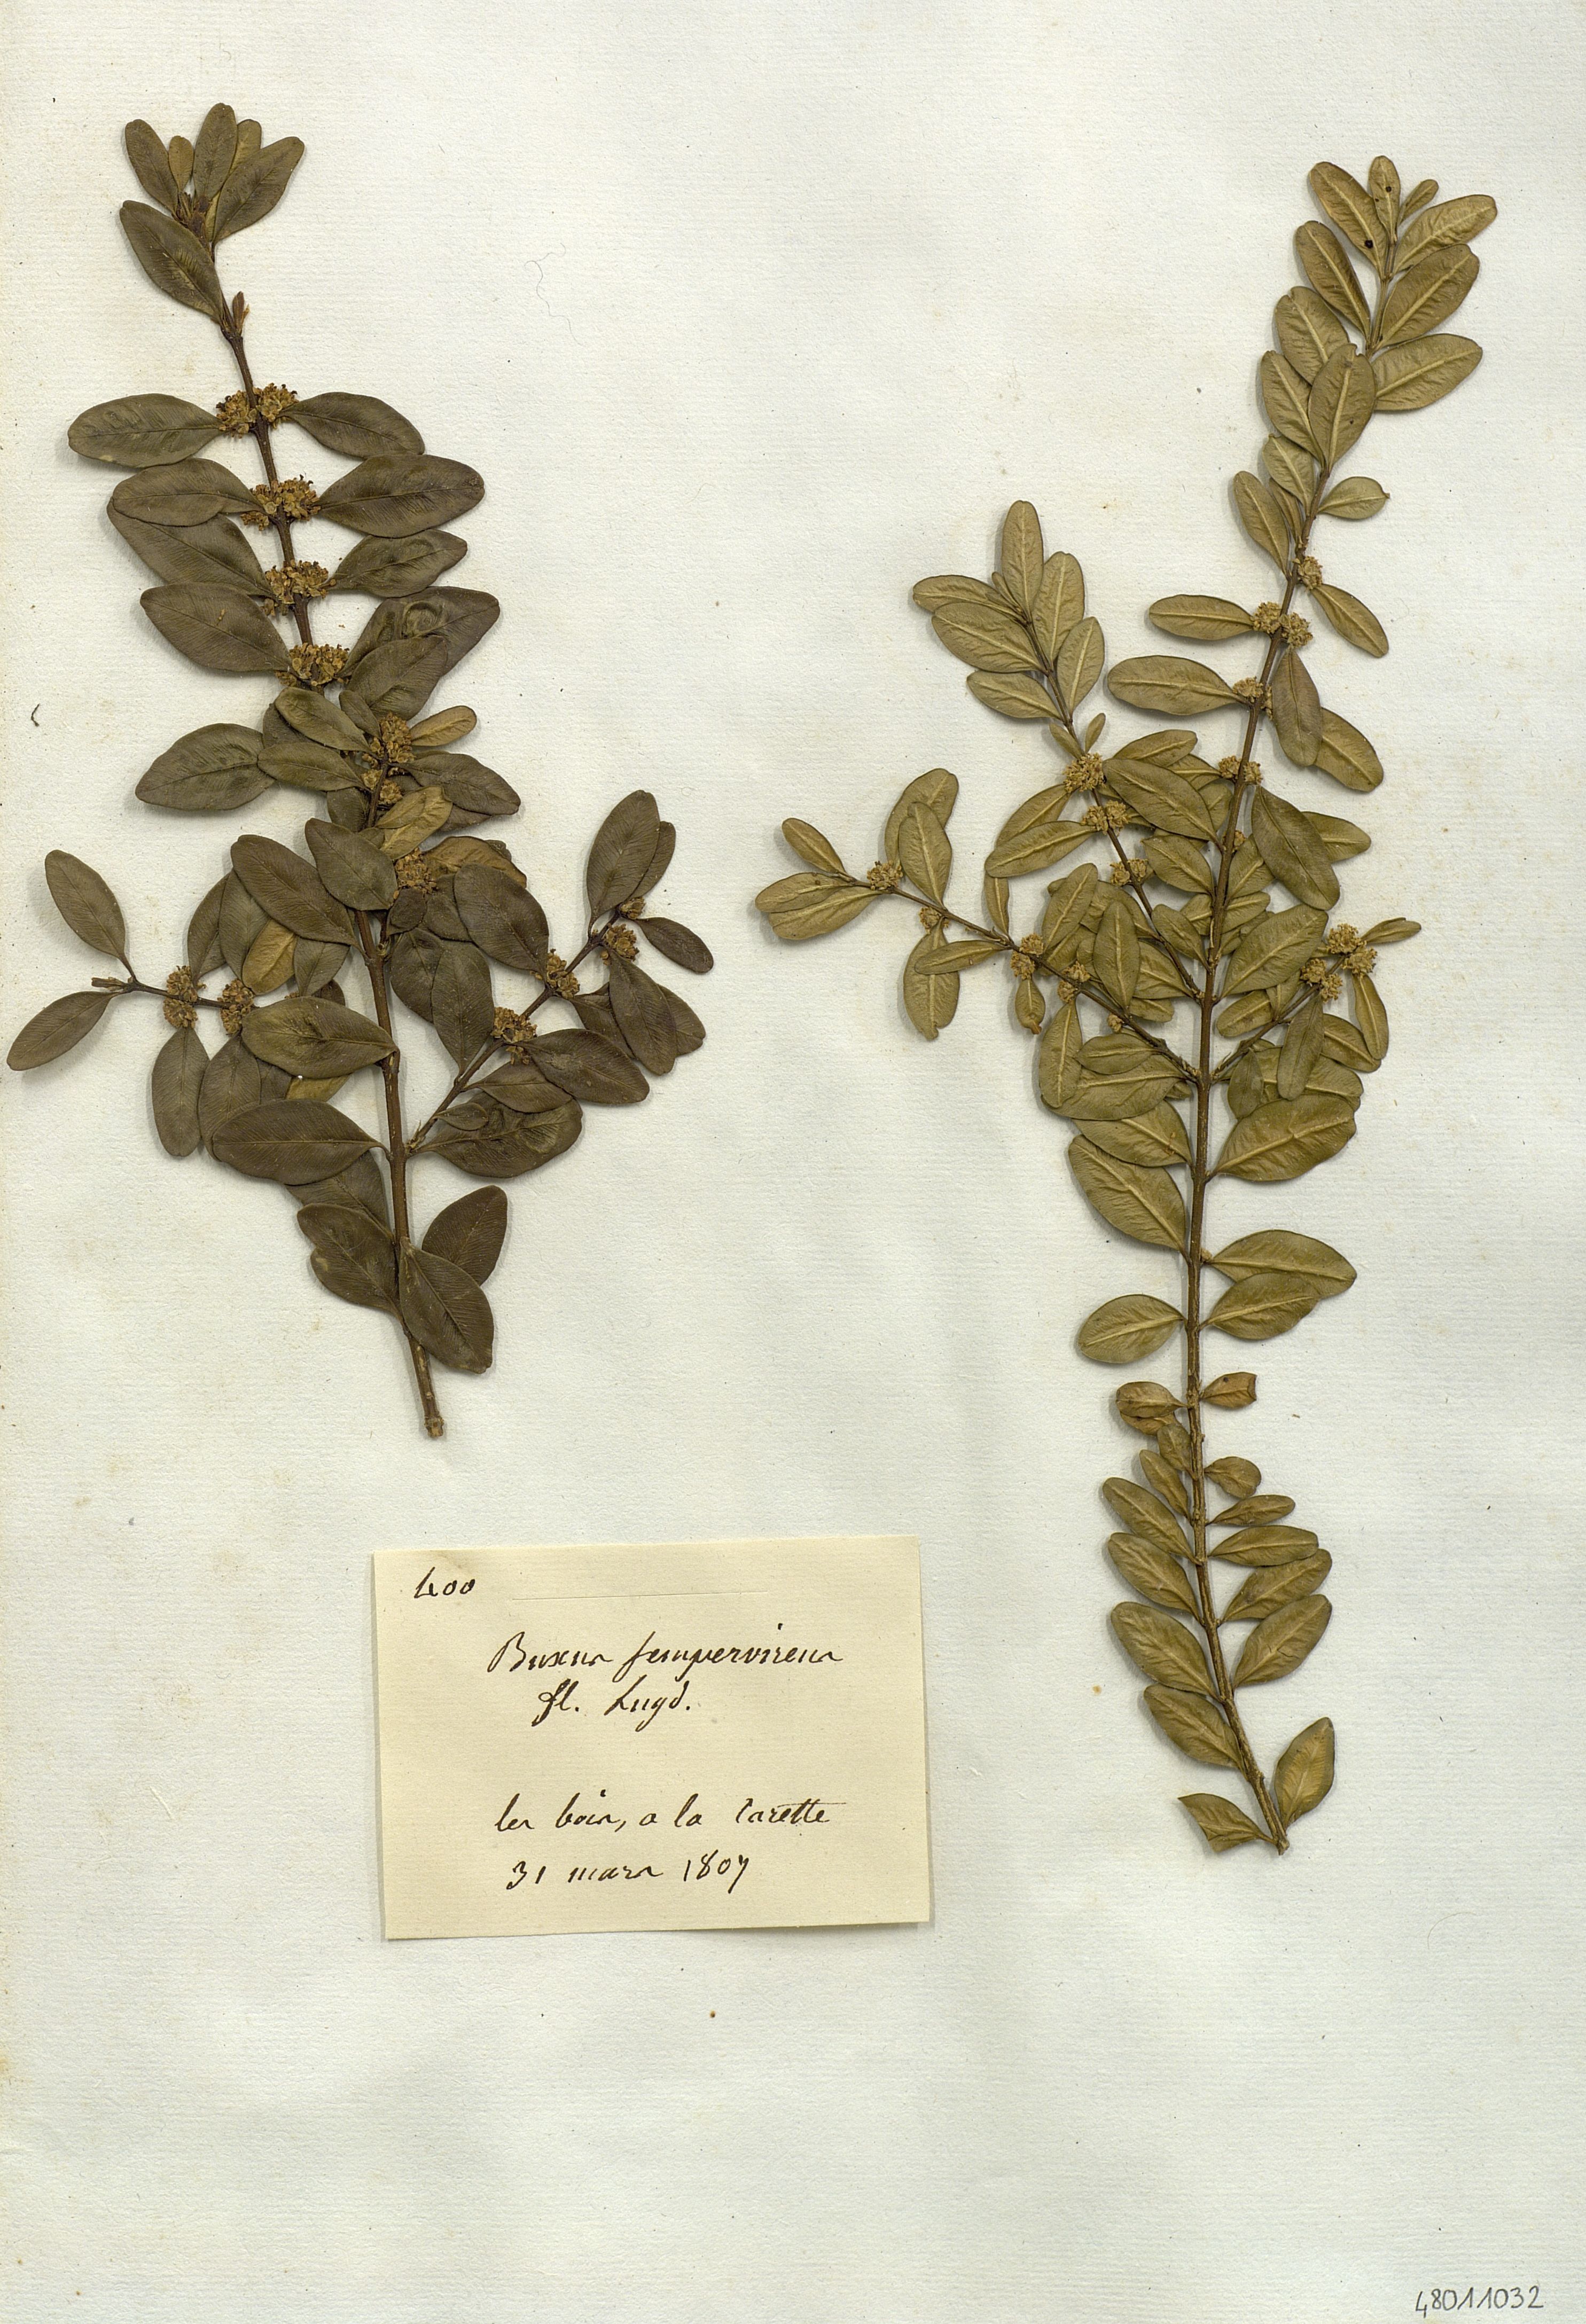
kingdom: Plantae
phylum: Tracheophyta
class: Magnoliopsida
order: Buxales
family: Buxaceae
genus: Buxus
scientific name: Buxus sempervirens
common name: Box
